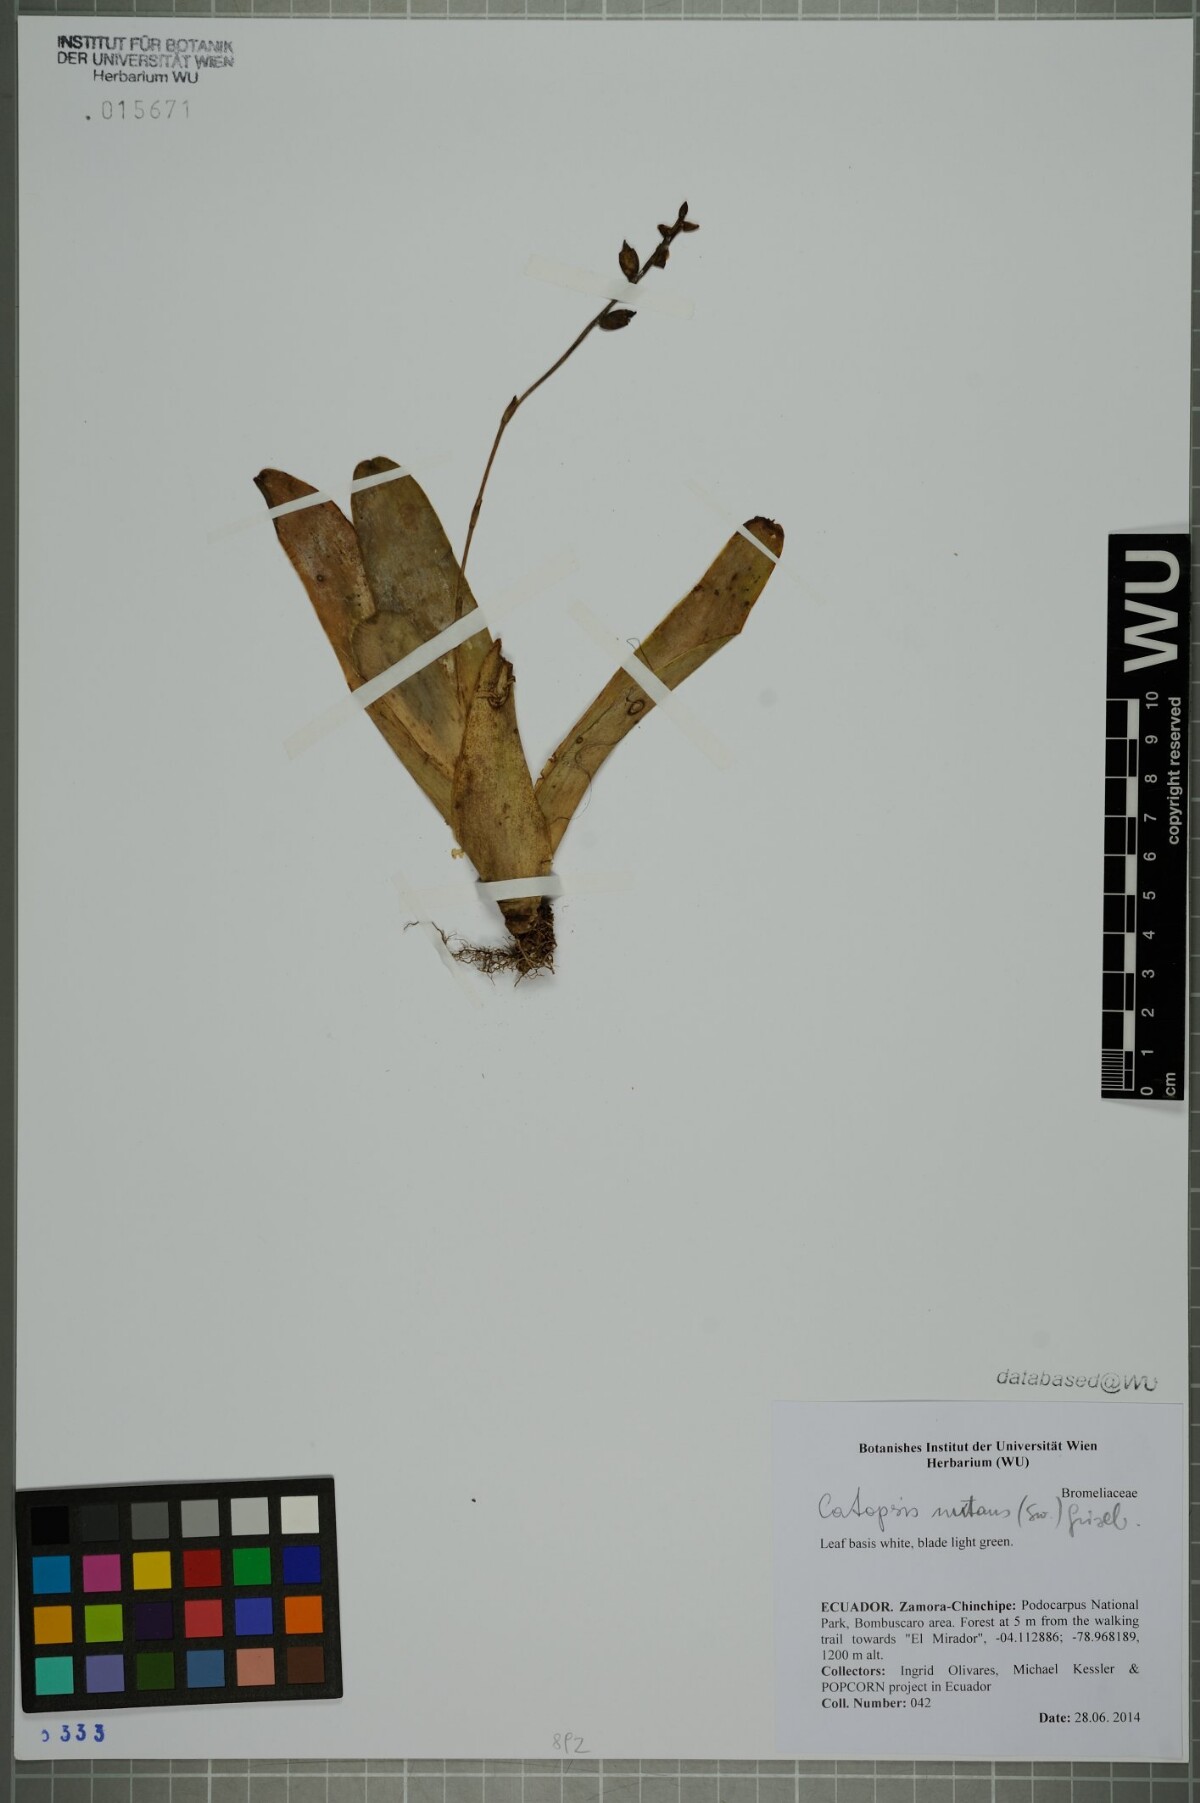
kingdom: Plantae
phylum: Tracheophyta
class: Liliopsida
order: Poales
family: Bromeliaceae
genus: Catopsis
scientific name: Catopsis nutans
